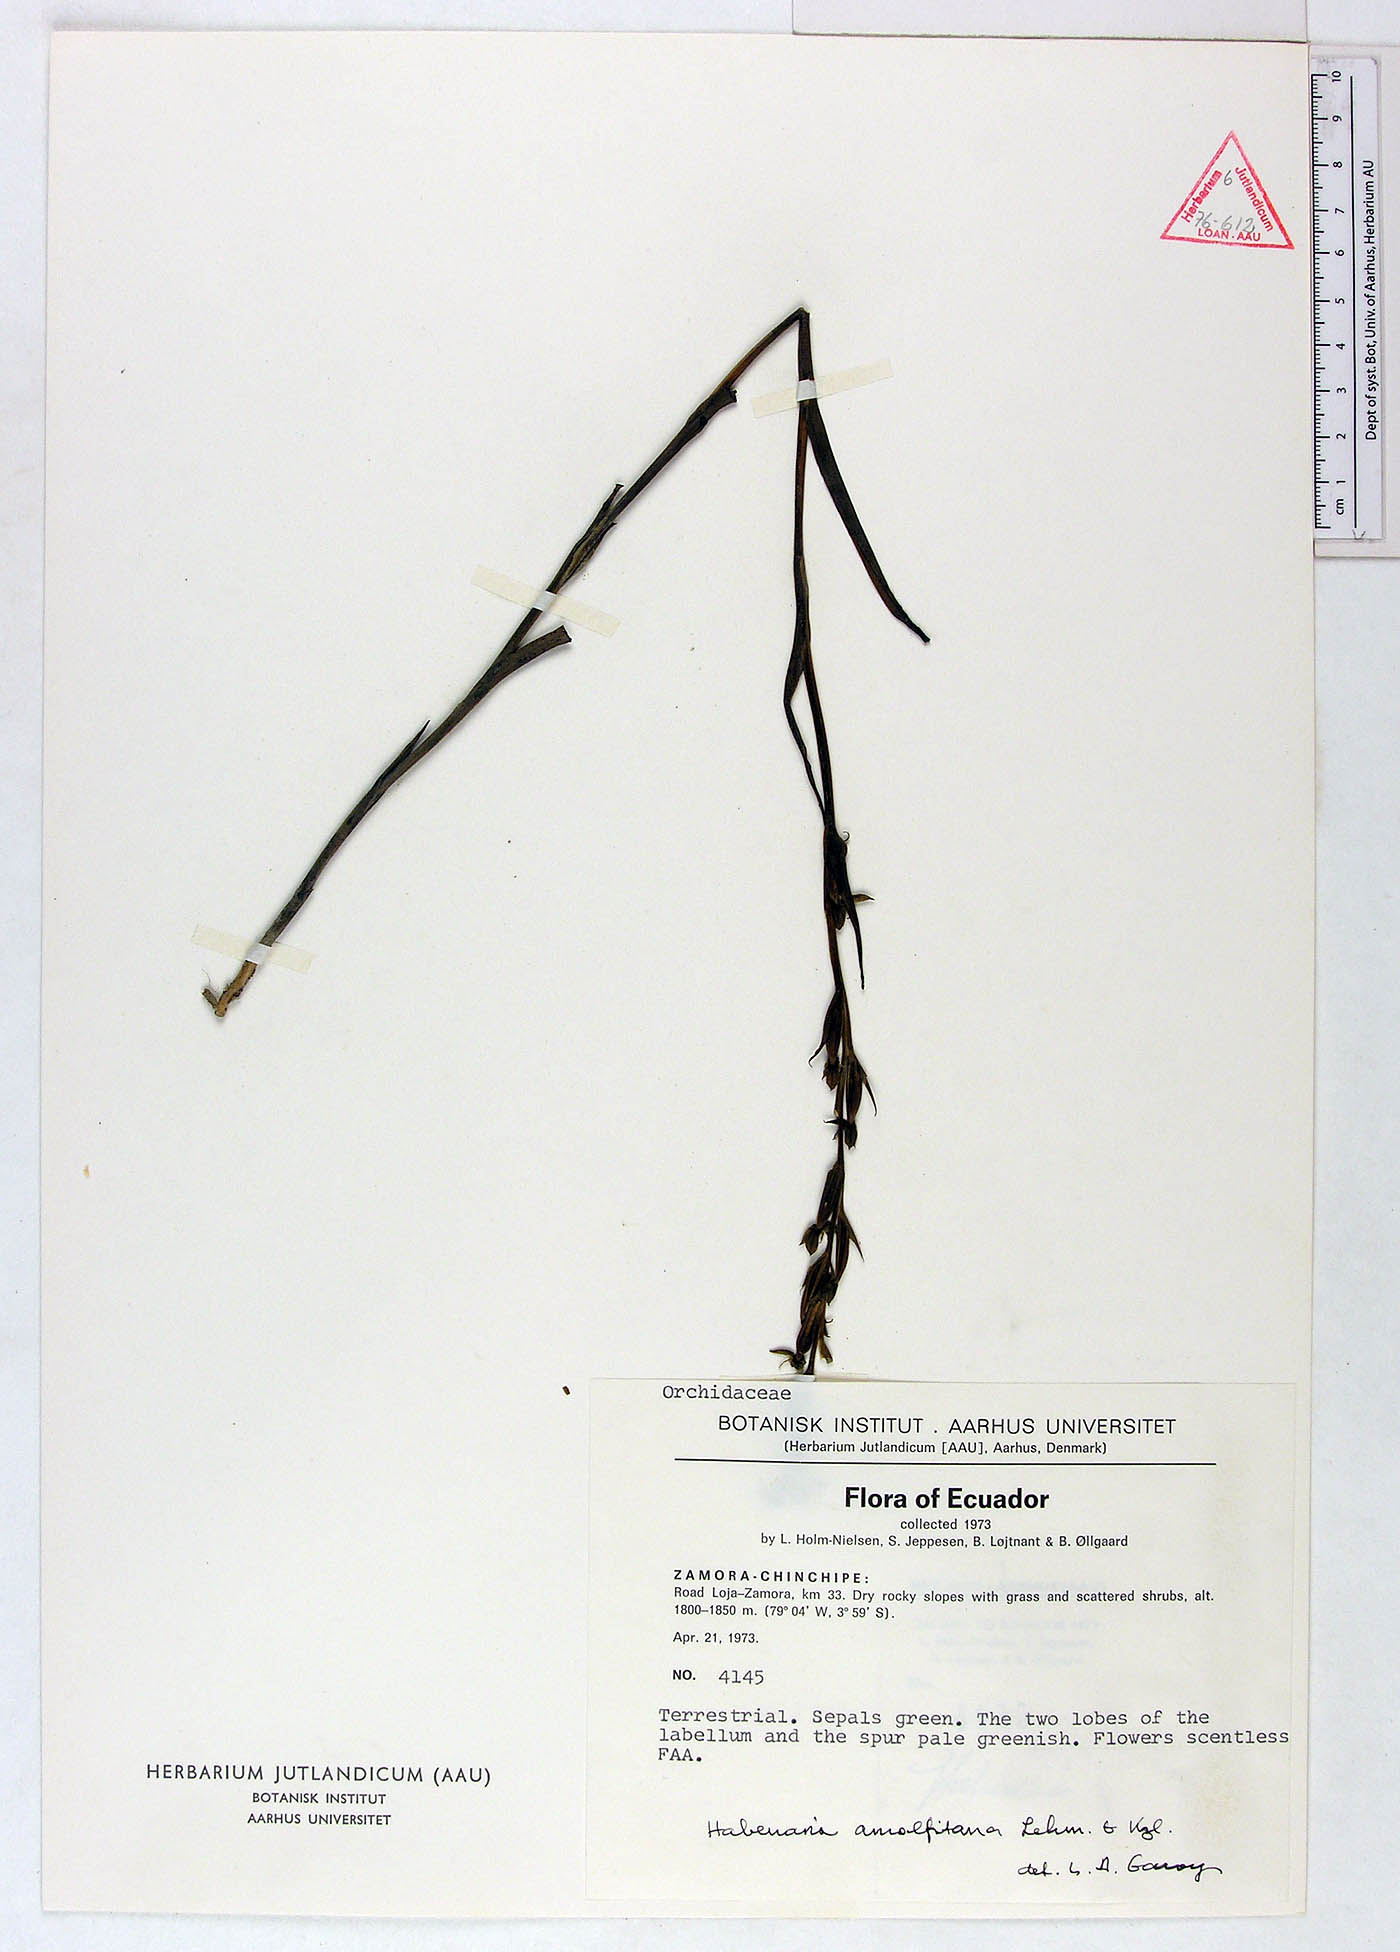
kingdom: Plantae
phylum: Tracheophyta
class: Liliopsida
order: Asparagales
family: Orchidaceae
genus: Habenaria
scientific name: Habenaria amalfitana
